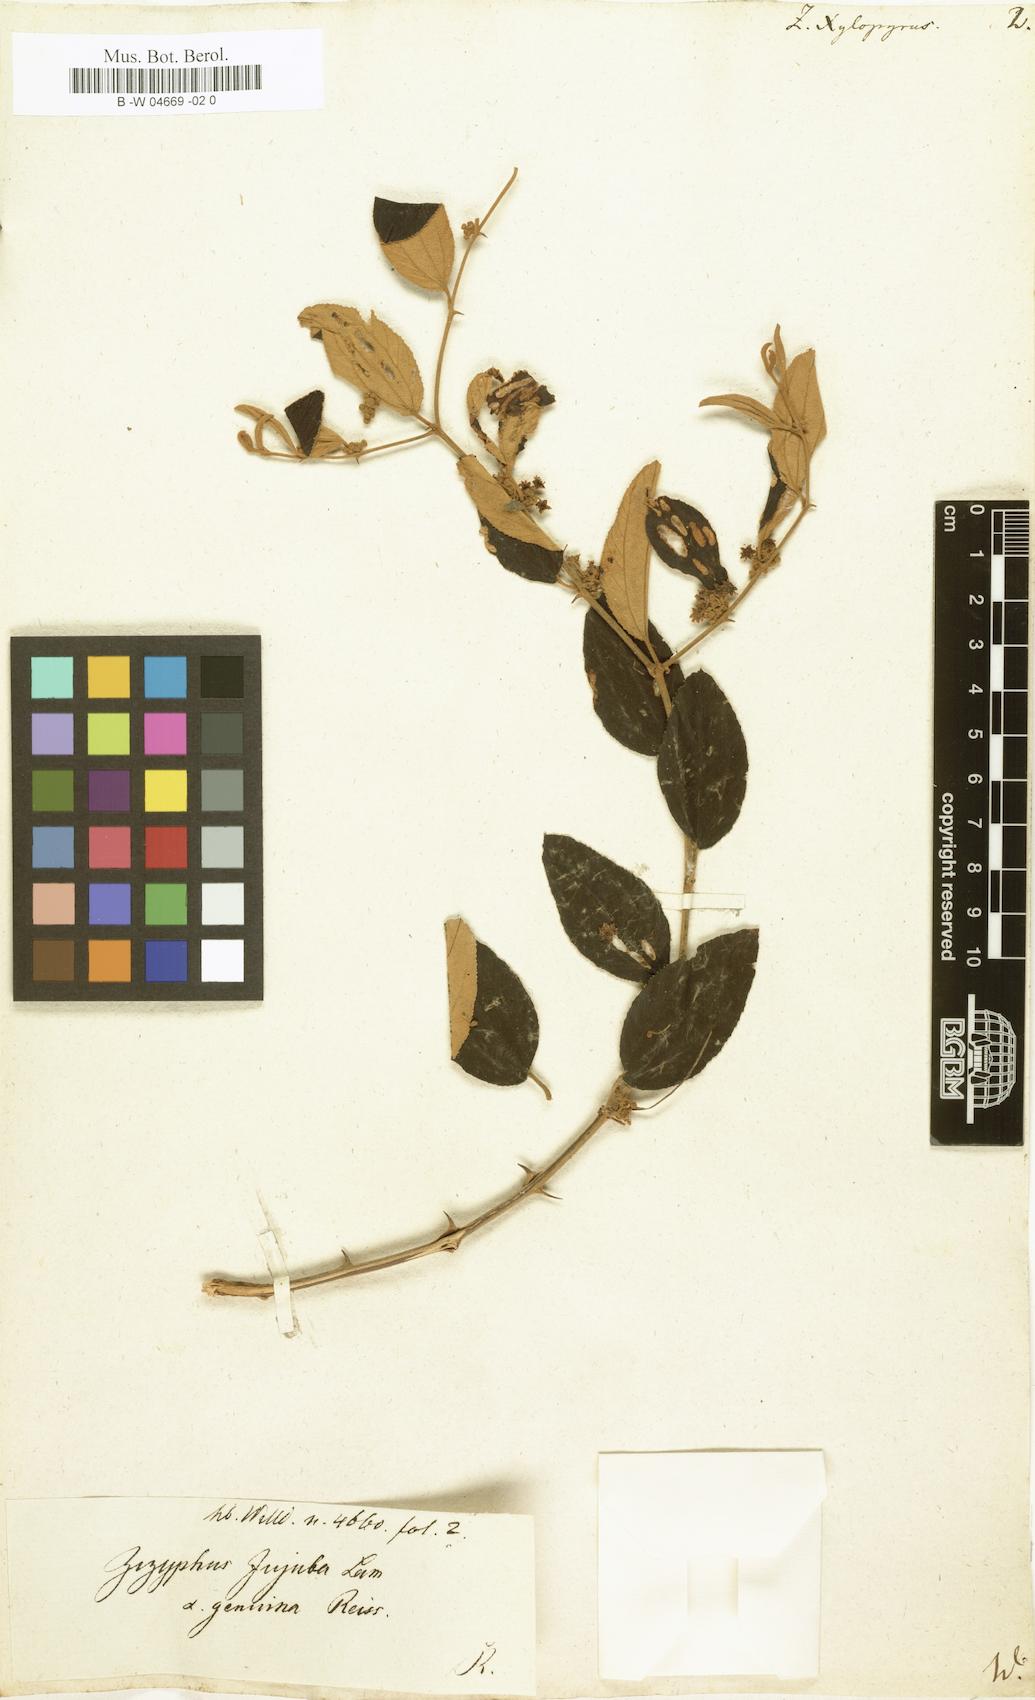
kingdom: Plantae
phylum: Tracheophyta
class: Magnoliopsida
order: Rosales
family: Rhamnaceae
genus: Ziziphus
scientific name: Ziziphus xylopyrus
